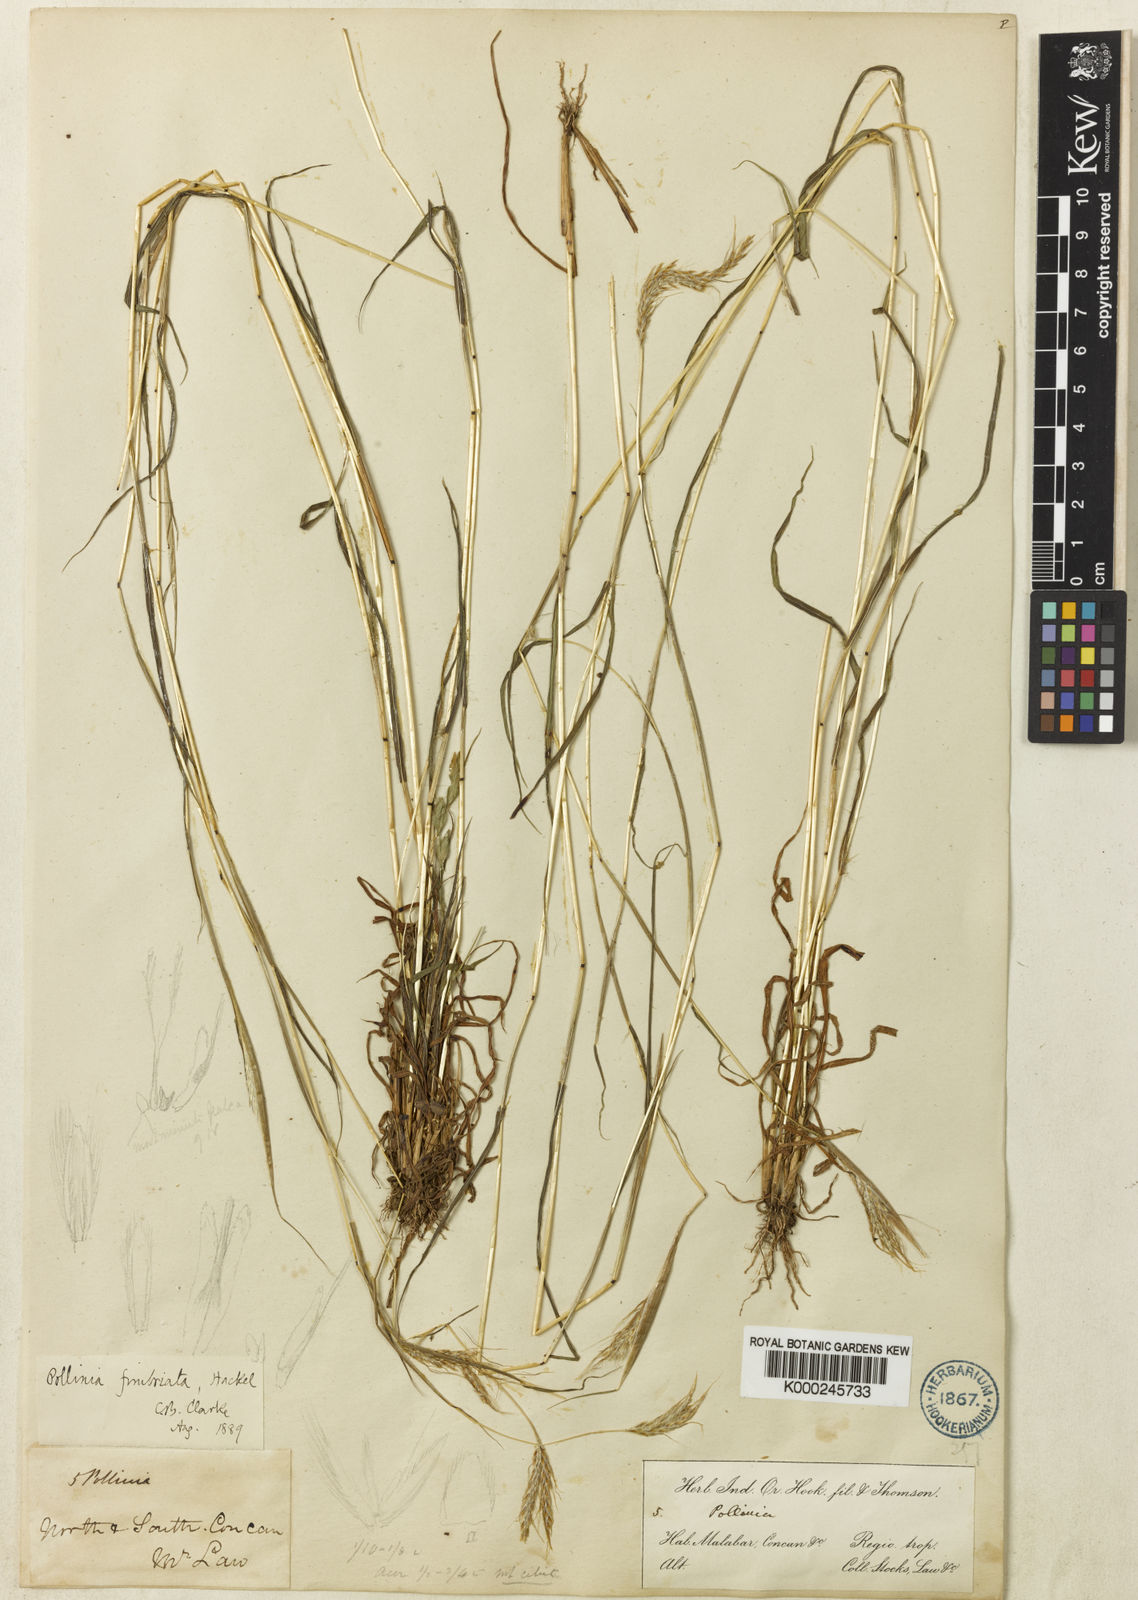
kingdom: Plantae
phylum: Tracheophyta
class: Liliopsida
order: Poales
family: Poaceae
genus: Eulalia
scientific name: Eulalia conjugata
